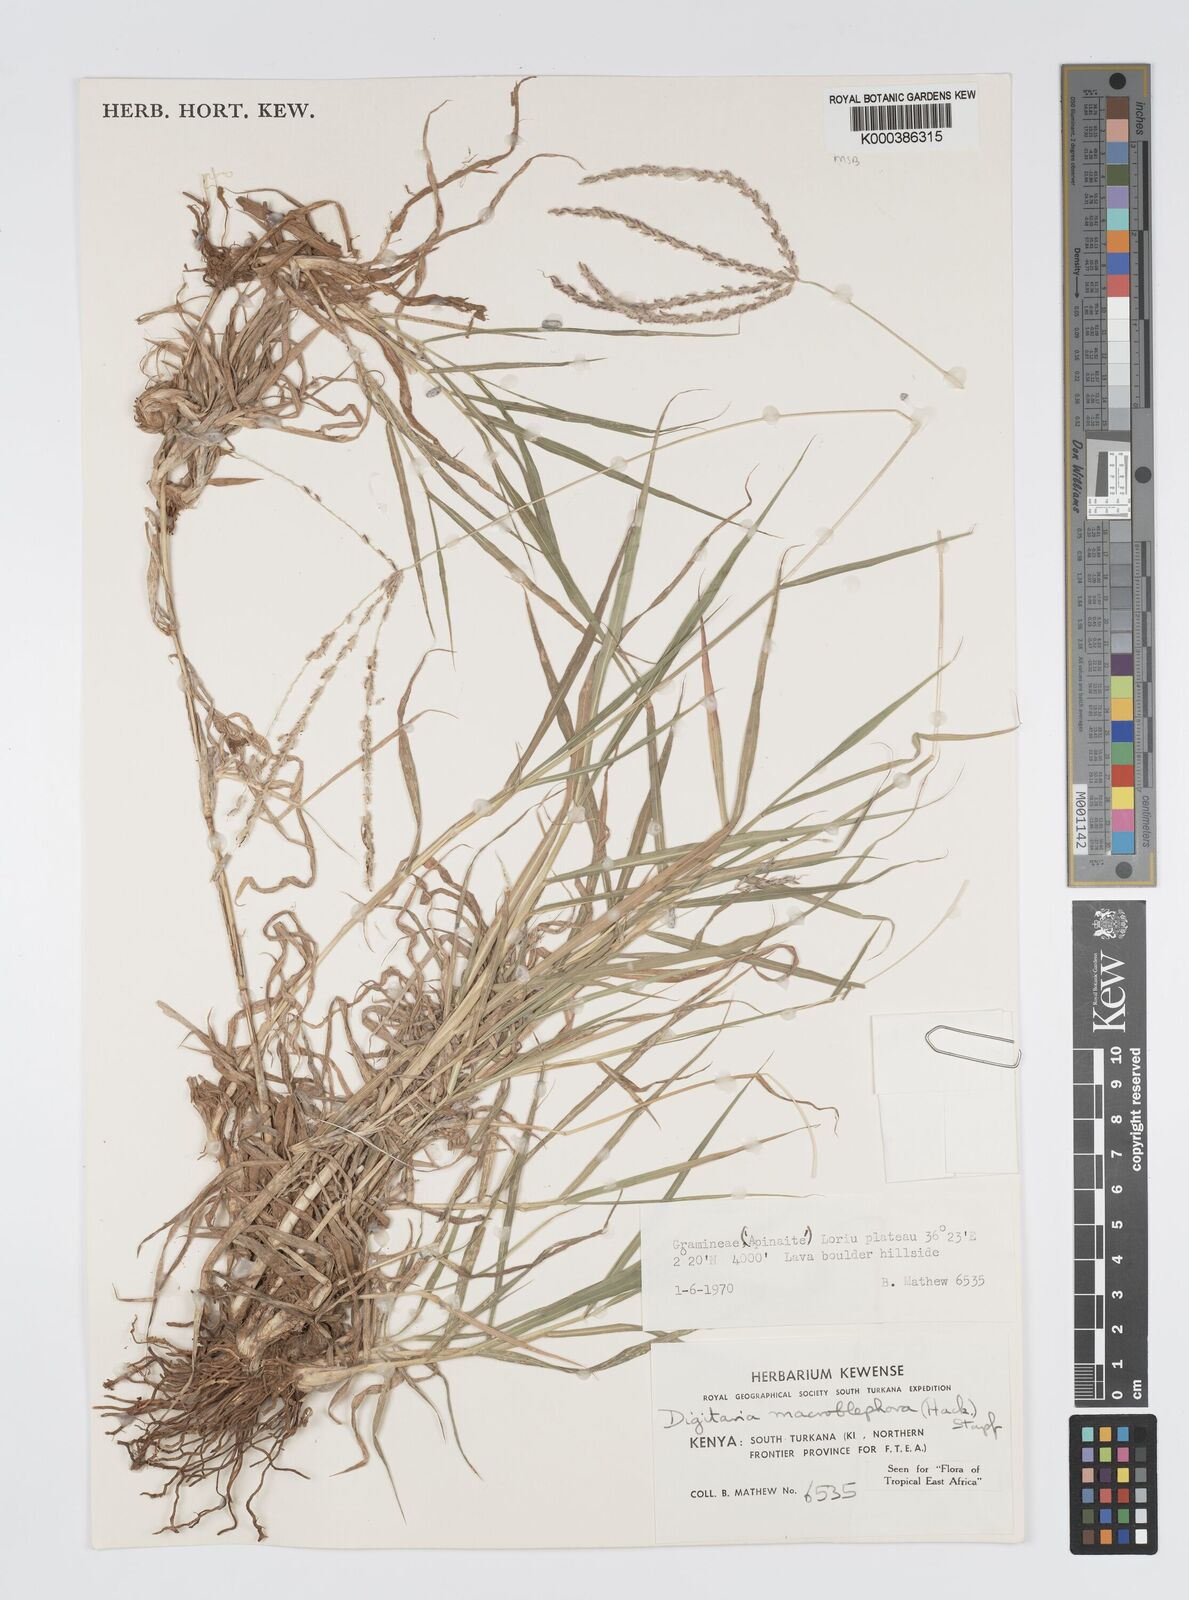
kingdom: Plantae
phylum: Tracheophyta
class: Liliopsida
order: Poales
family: Poaceae
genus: Digitaria
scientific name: Digitaria macroblephara
